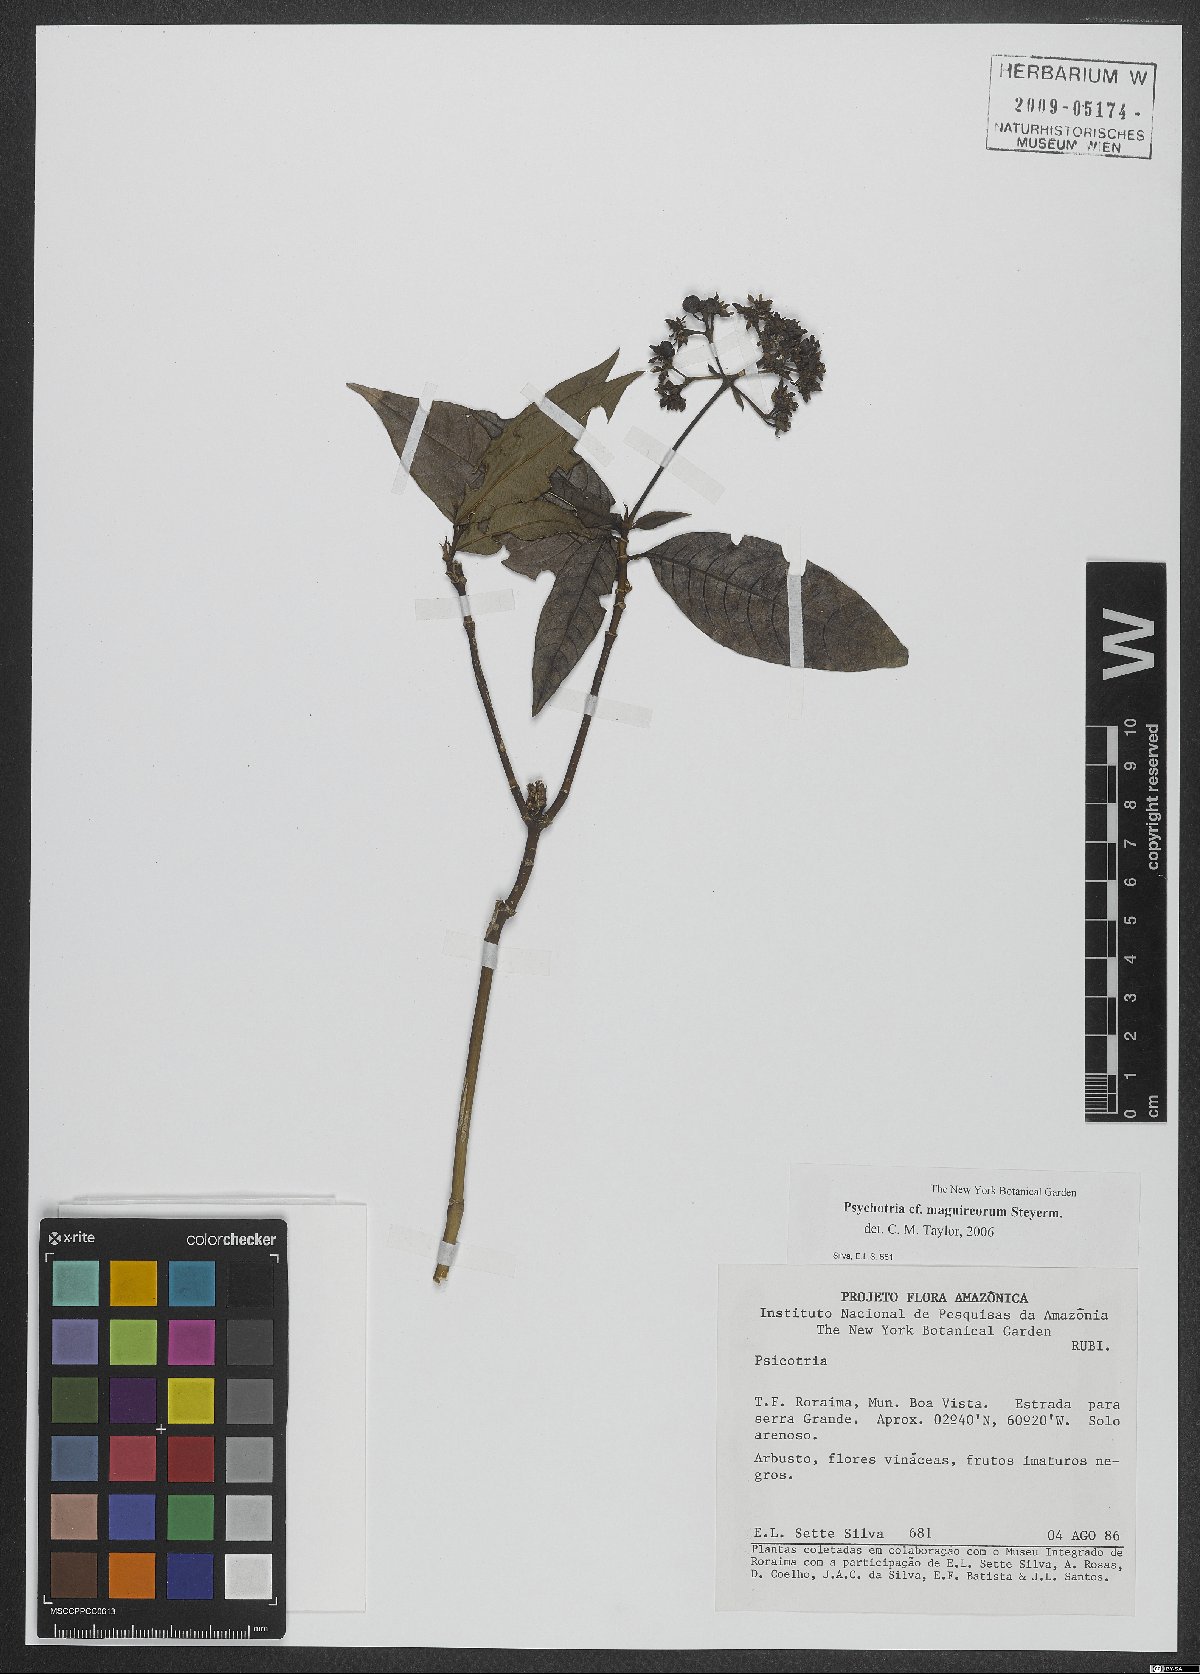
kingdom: Plantae
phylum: Tracheophyta
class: Magnoliopsida
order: Gentianales
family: Rubiaceae
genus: Palicourea
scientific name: Palicourea maguireorum
